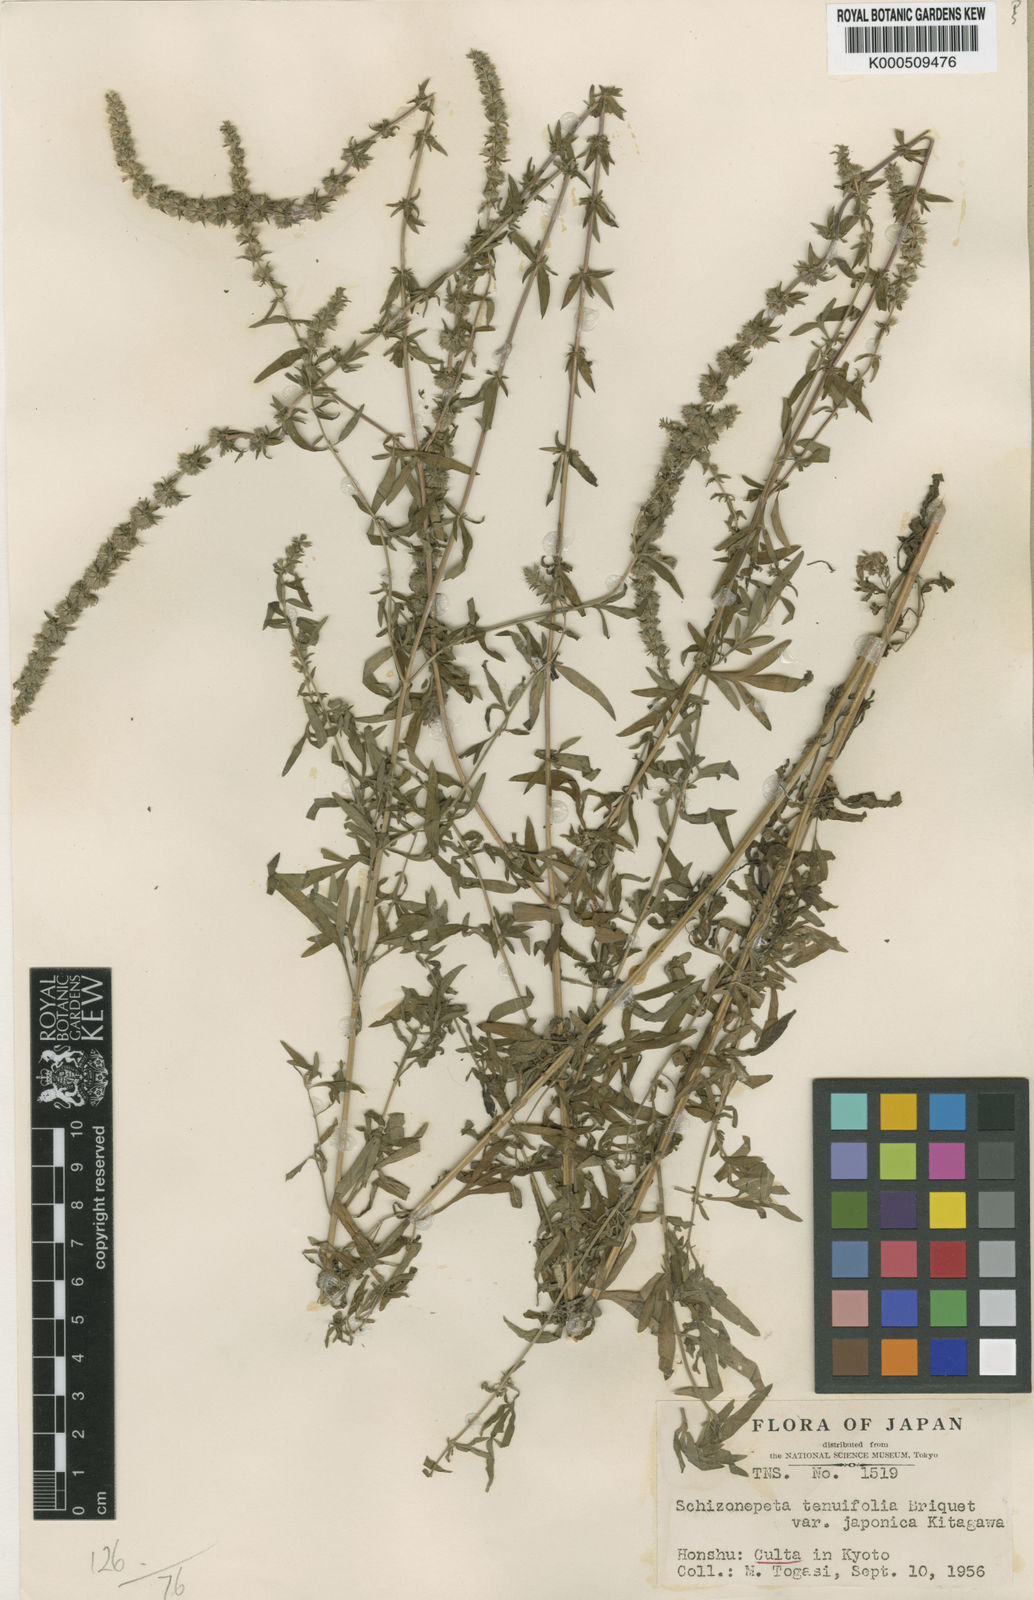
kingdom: Plantae
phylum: Tracheophyta
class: Magnoliopsida
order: Lamiales
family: Lamiaceae
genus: Nepeta
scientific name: Nepeta tenuifolia
